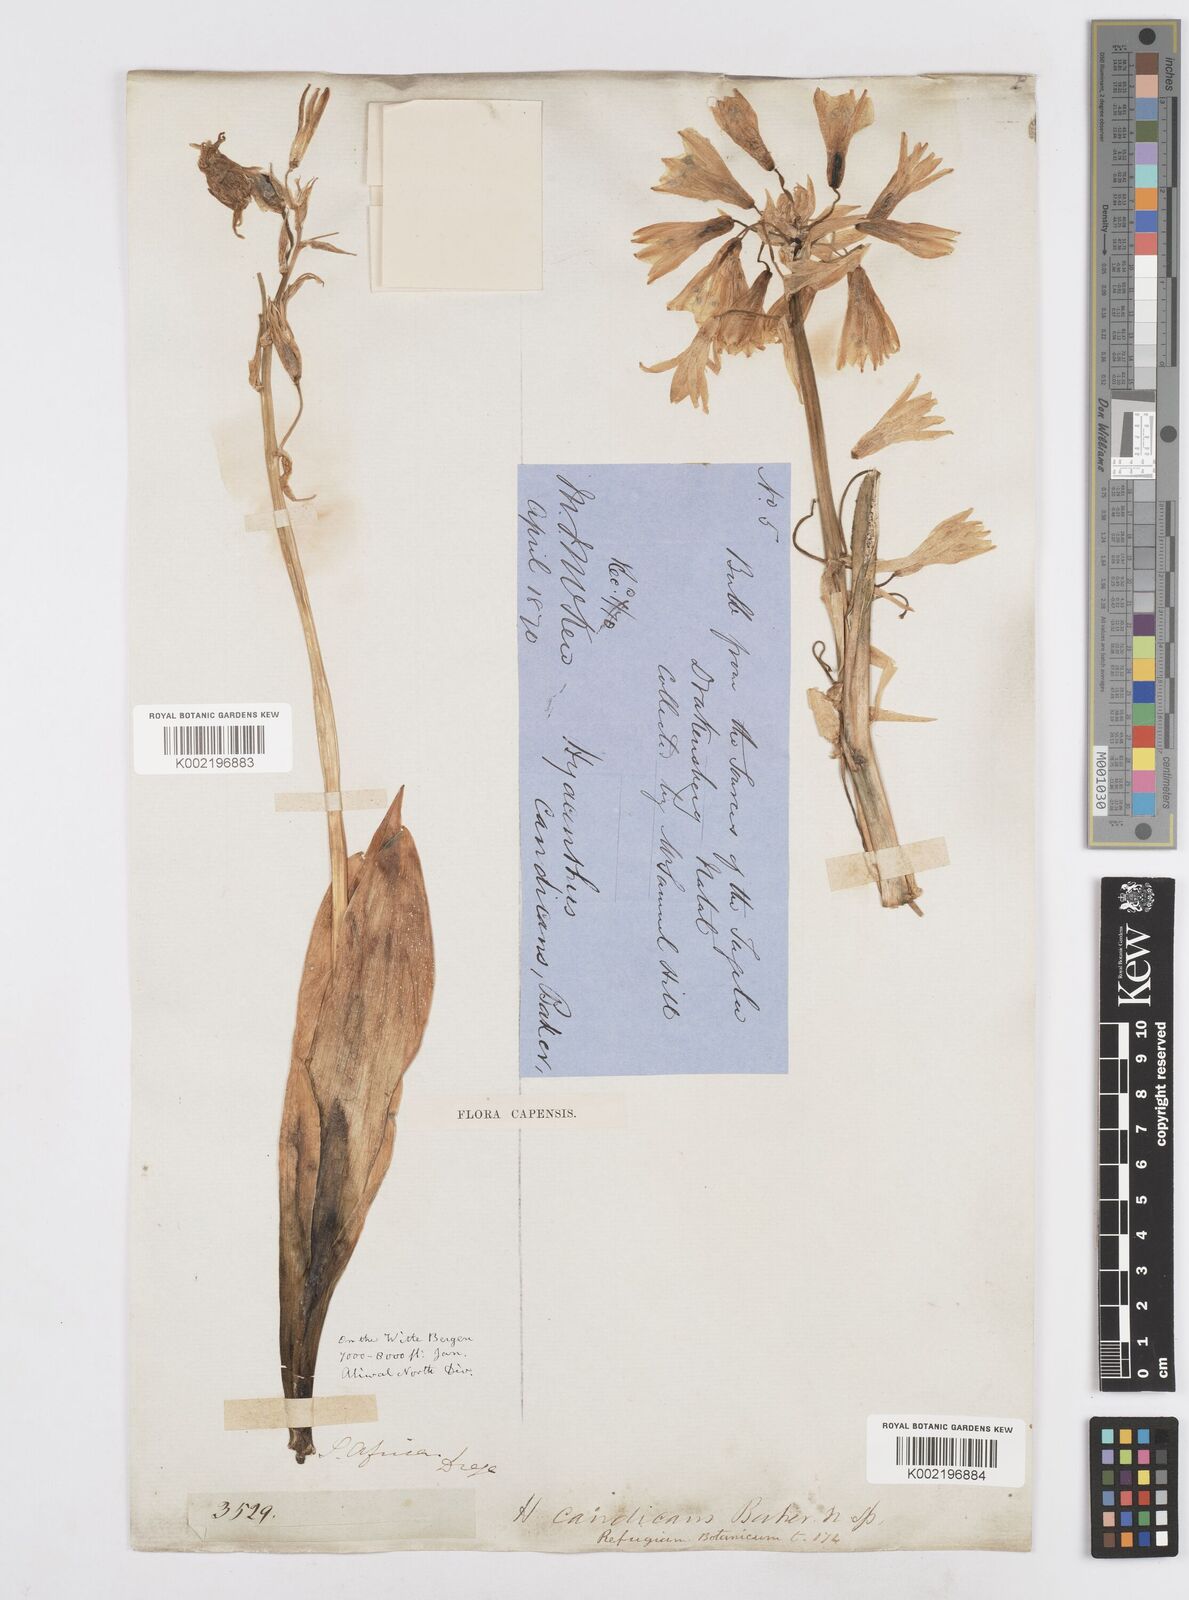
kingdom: Plantae
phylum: Tracheophyta
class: Liliopsida
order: Asparagales
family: Asparagaceae
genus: Ornithogalum
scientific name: Ornithogalum viridiflorum
